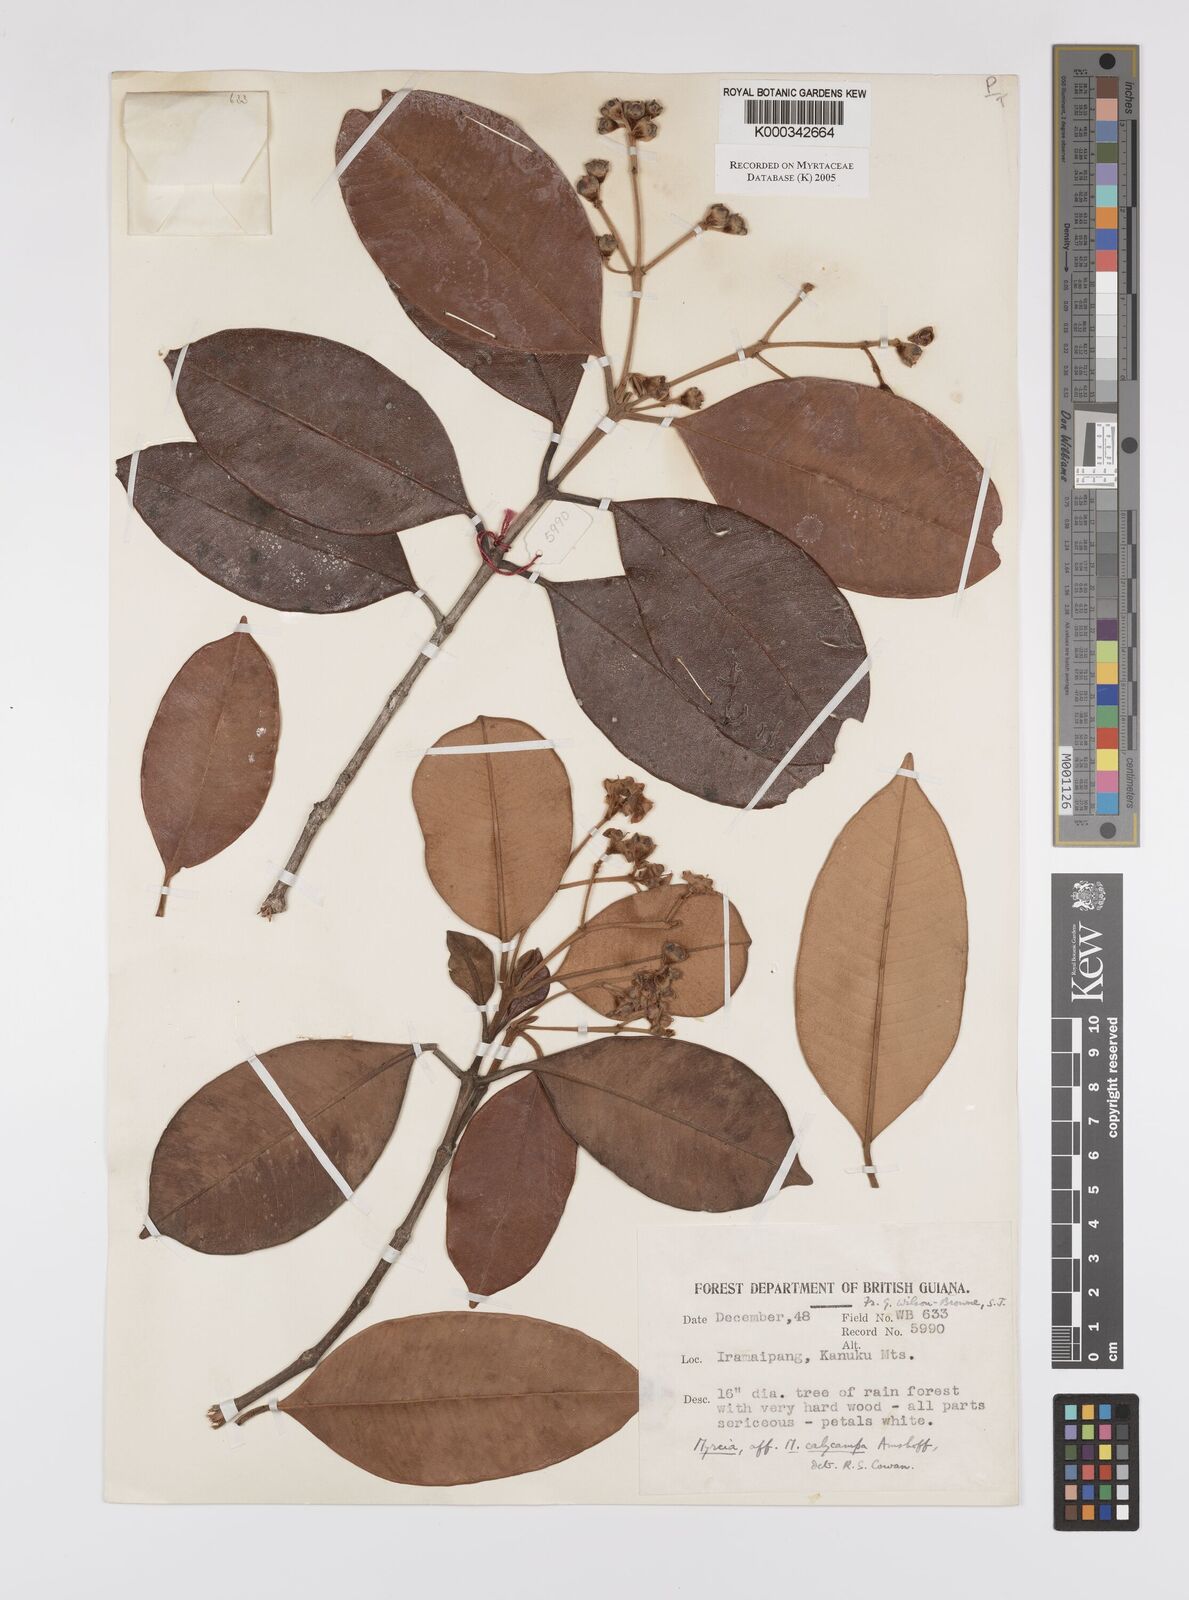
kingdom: Plantae
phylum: Tracheophyta
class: Magnoliopsida
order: Myrtales
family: Myrtaceae
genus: Myrcia
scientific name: Myrcia calycampa
